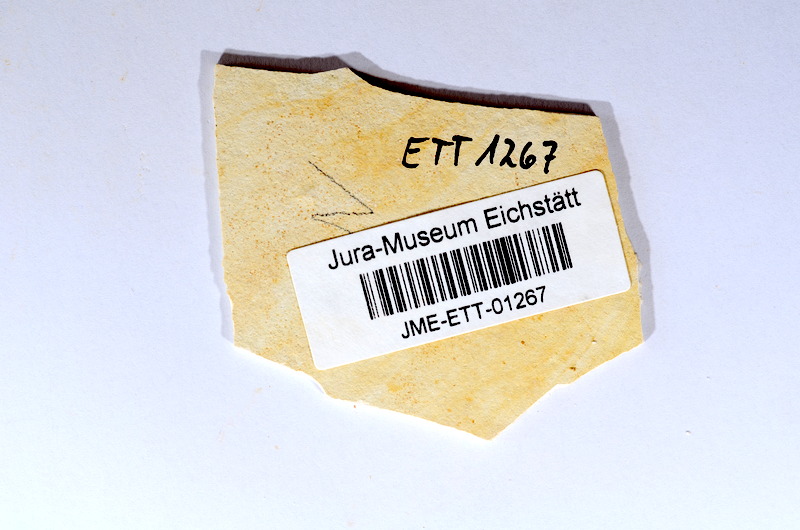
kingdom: Animalia
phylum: Chordata
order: Salmoniformes
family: Orthogonikleithridae
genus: Orthogonikleithrus
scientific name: Orthogonikleithrus hoelli
